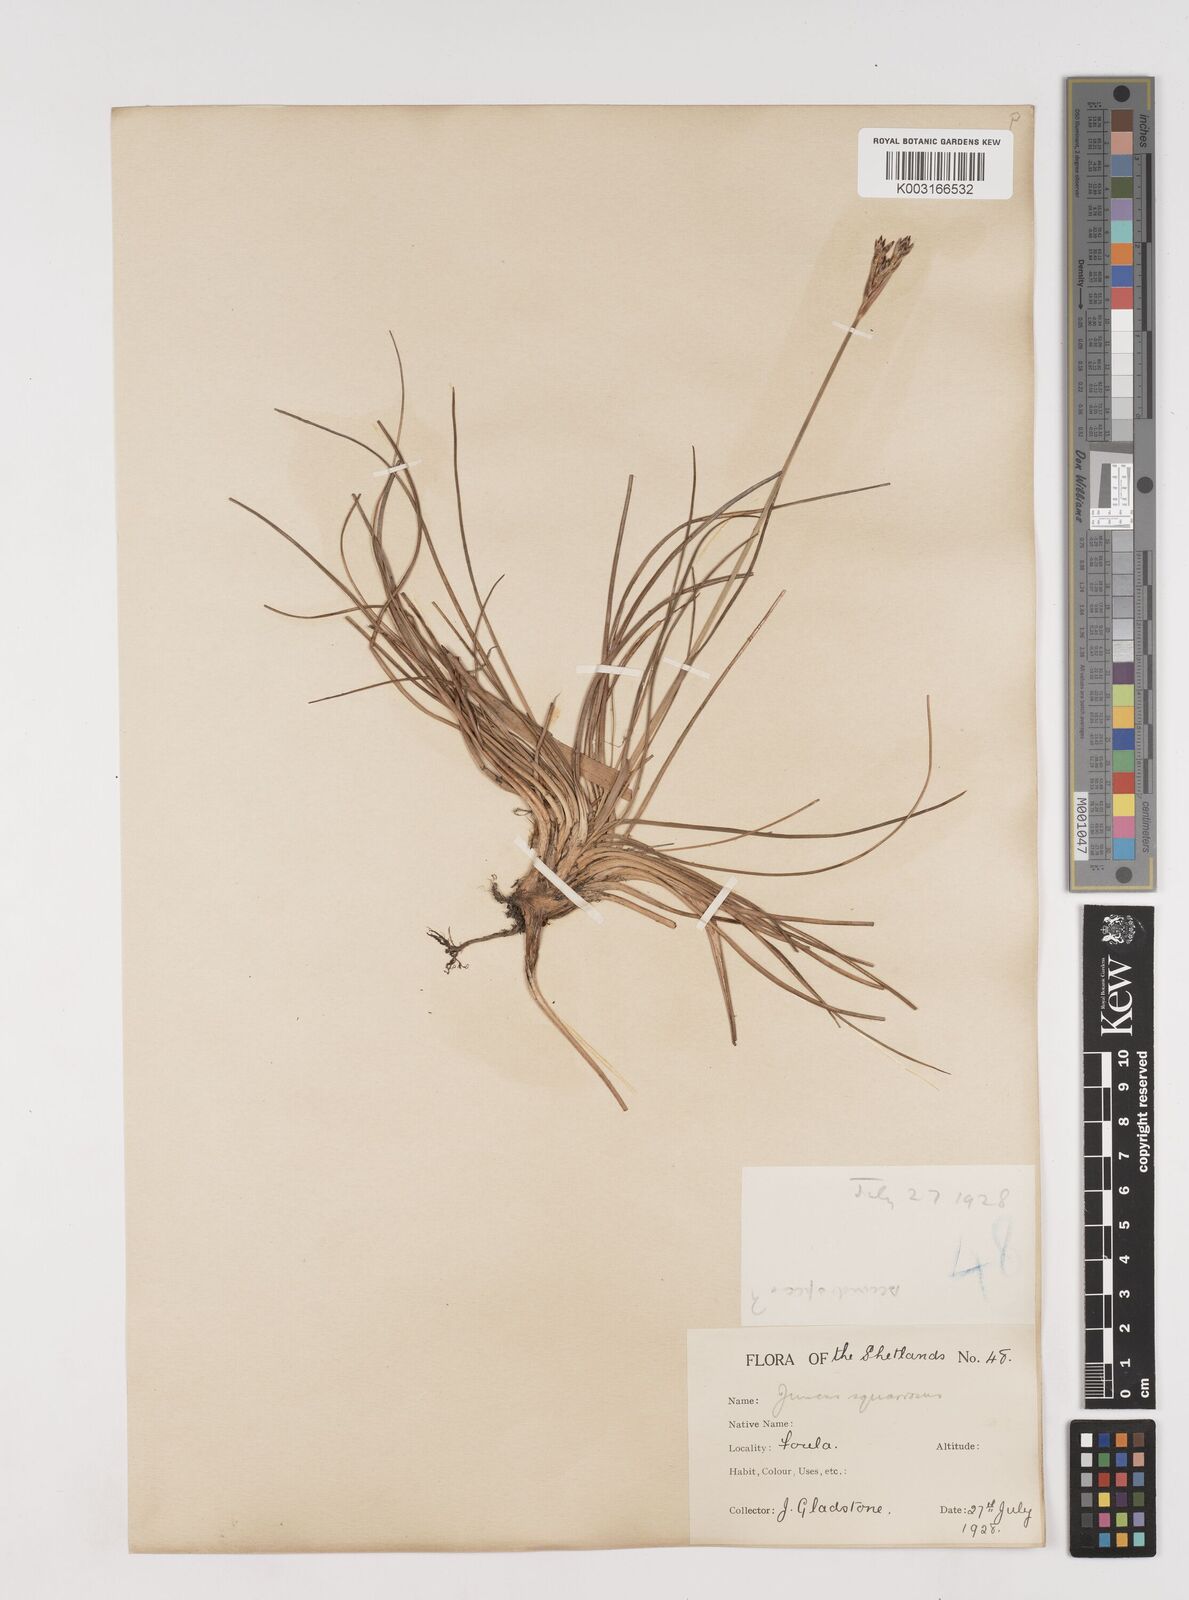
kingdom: Plantae
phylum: Tracheophyta
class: Liliopsida
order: Poales
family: Juncaceae
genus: Juncus
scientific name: Juncus squarrosus
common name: Heath rush
